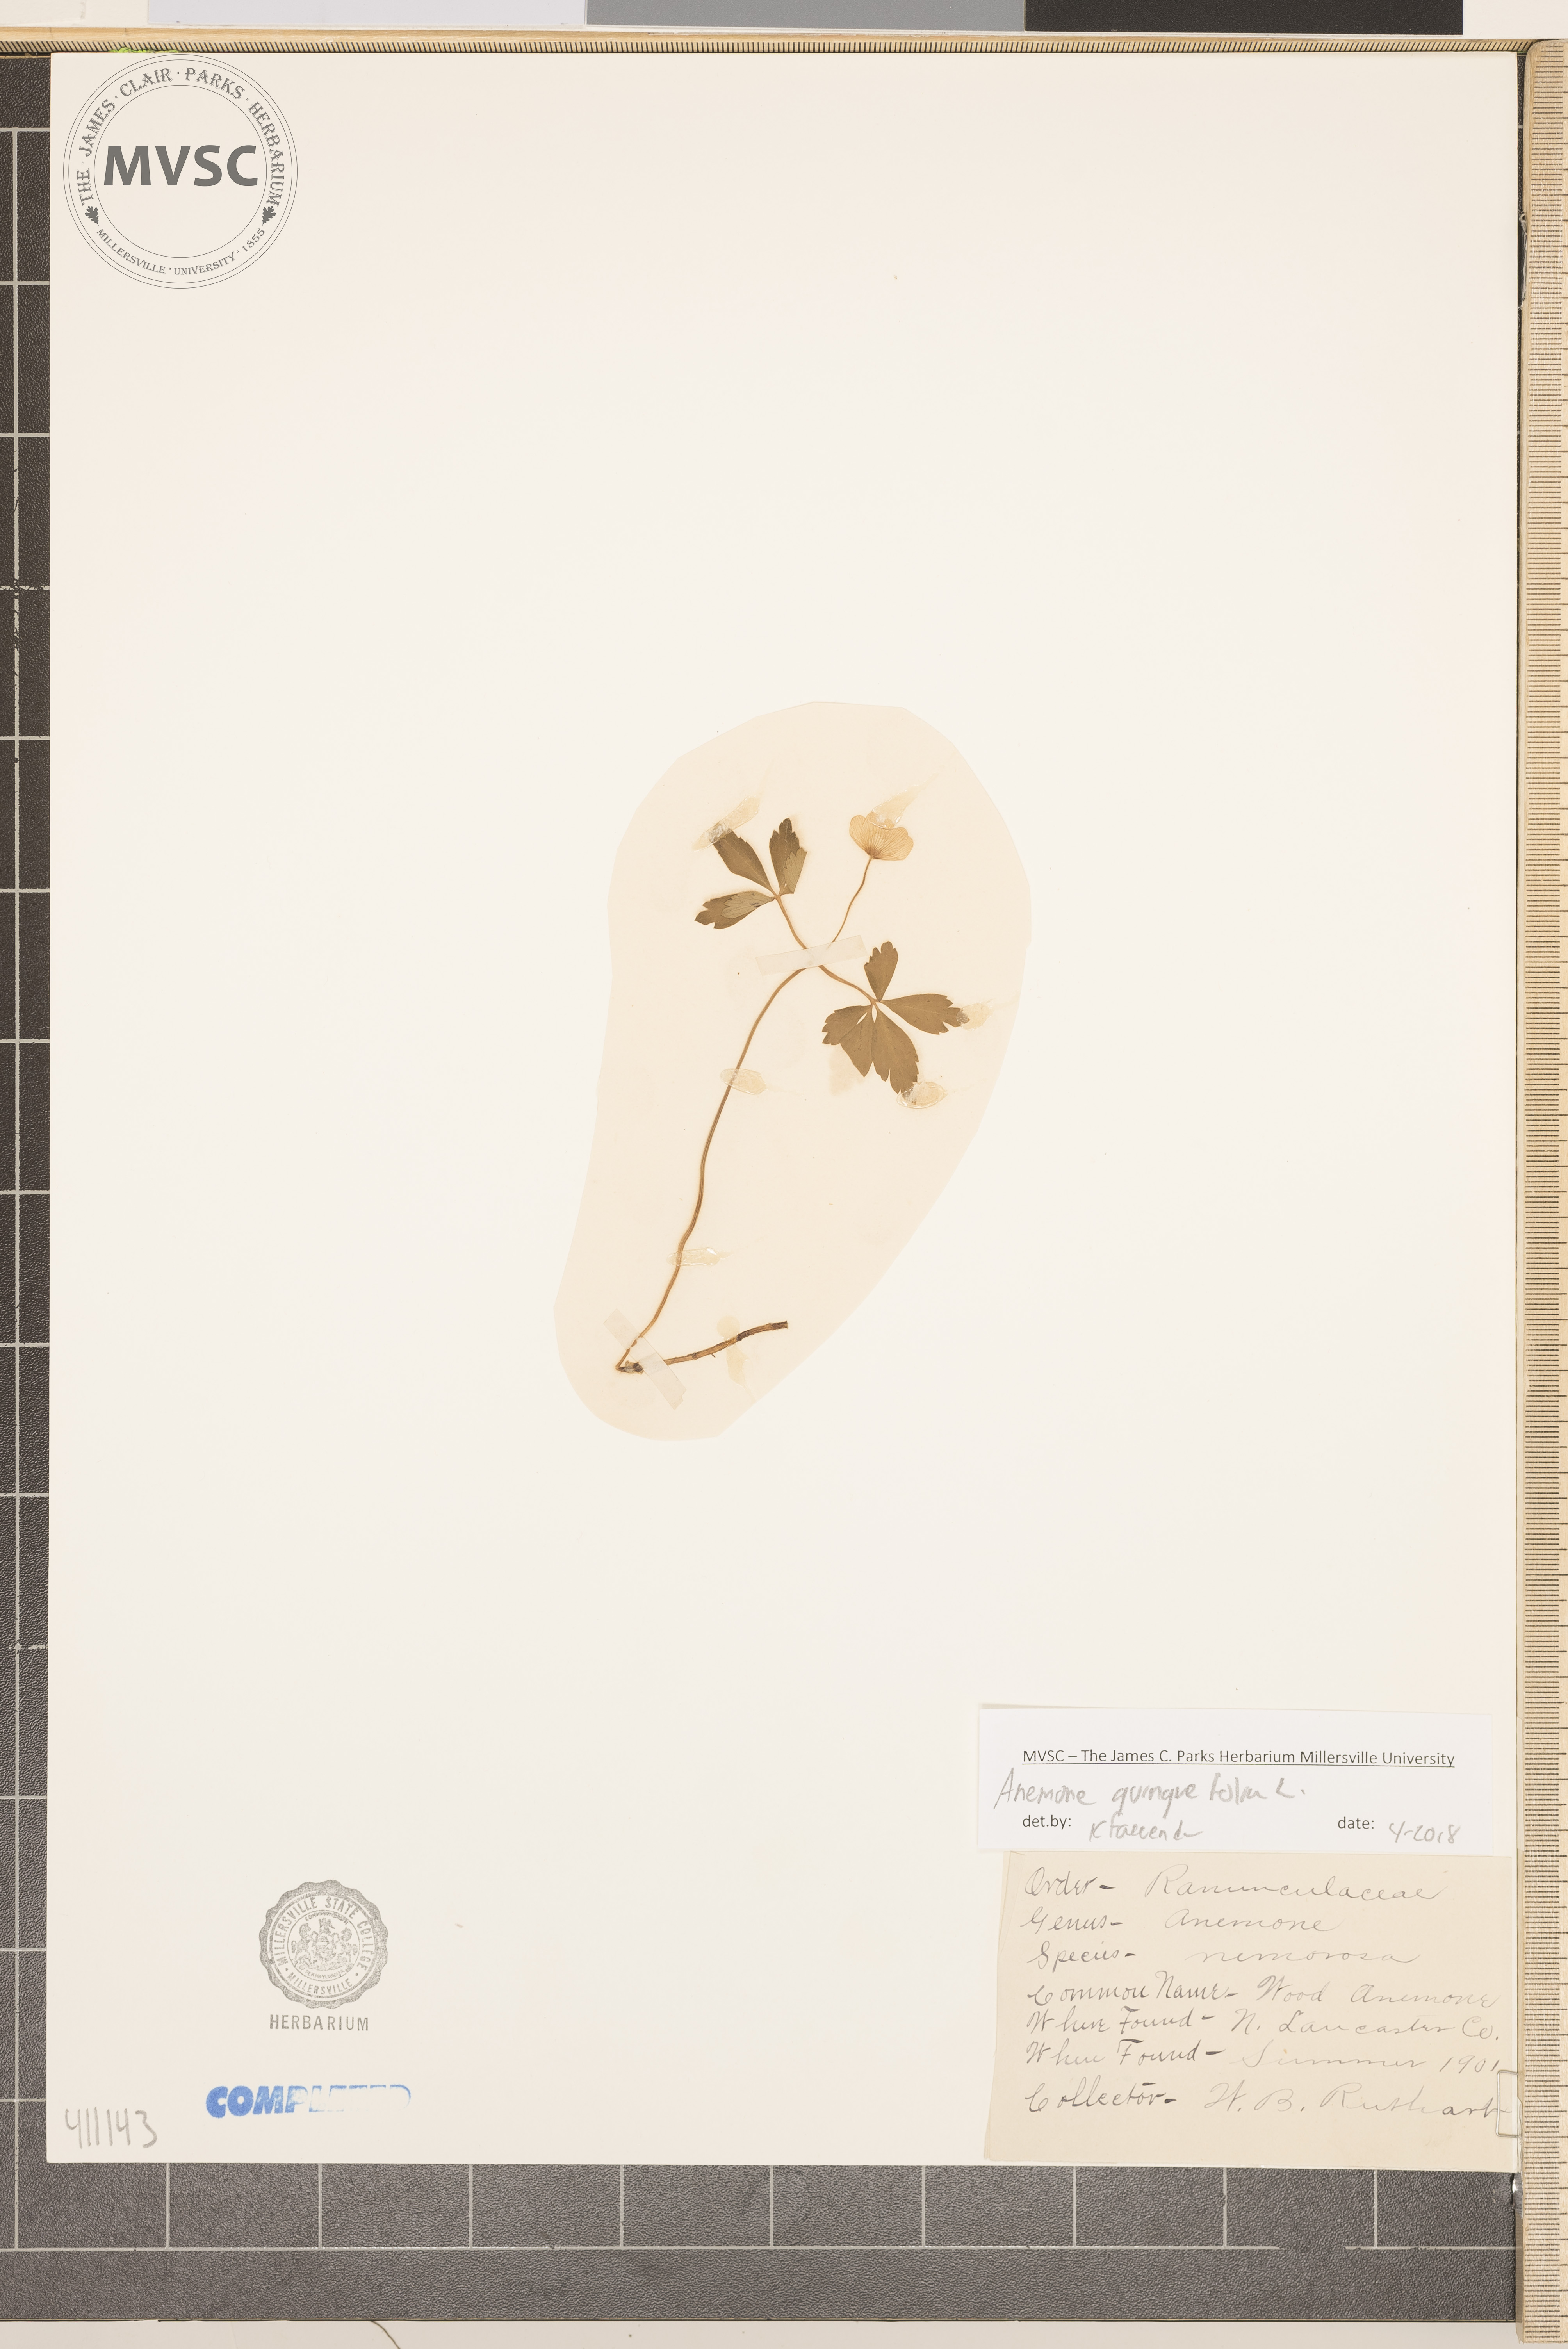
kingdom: Plantae
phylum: Tracheophyta
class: Magnoliopsida
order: Ranunculales
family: Ranunculaceae
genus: Anemone
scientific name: Anemone quinquefolia
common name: Wood anemone
